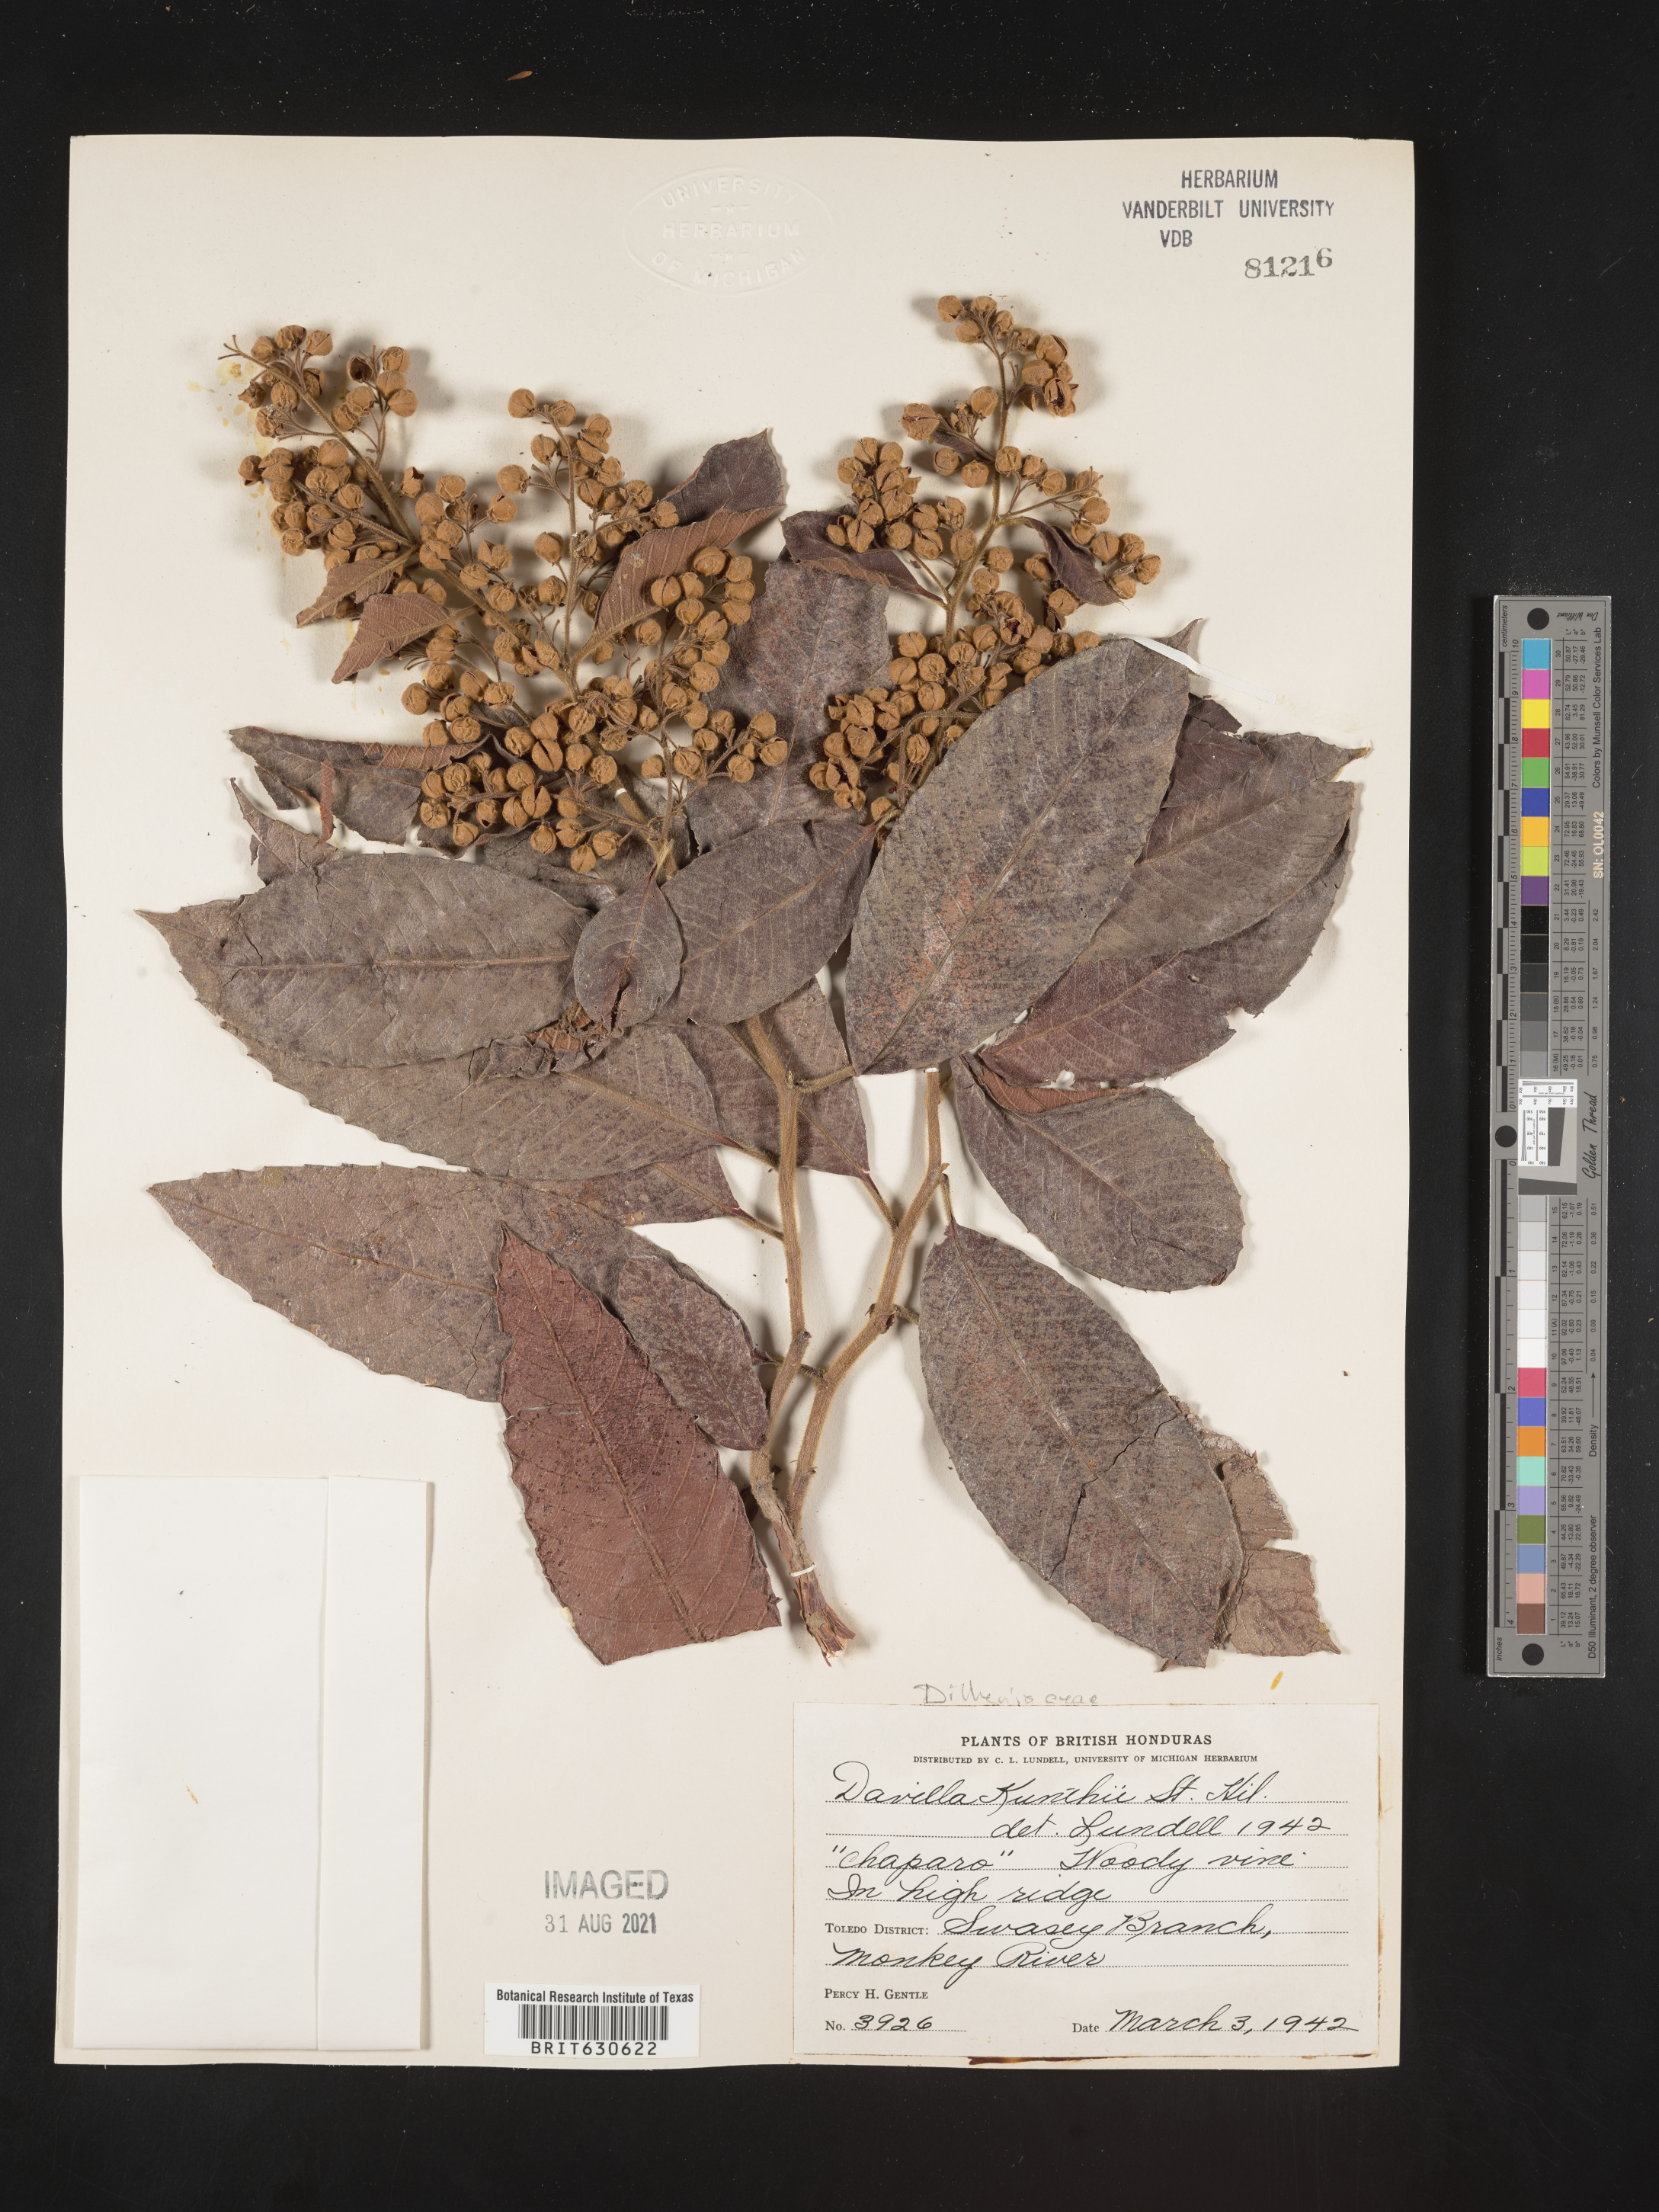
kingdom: Plantae
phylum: Tracheophyta
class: Magnoliopsida
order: Dilleniales
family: Dilleniaceae
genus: Davilla
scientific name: Davilla
